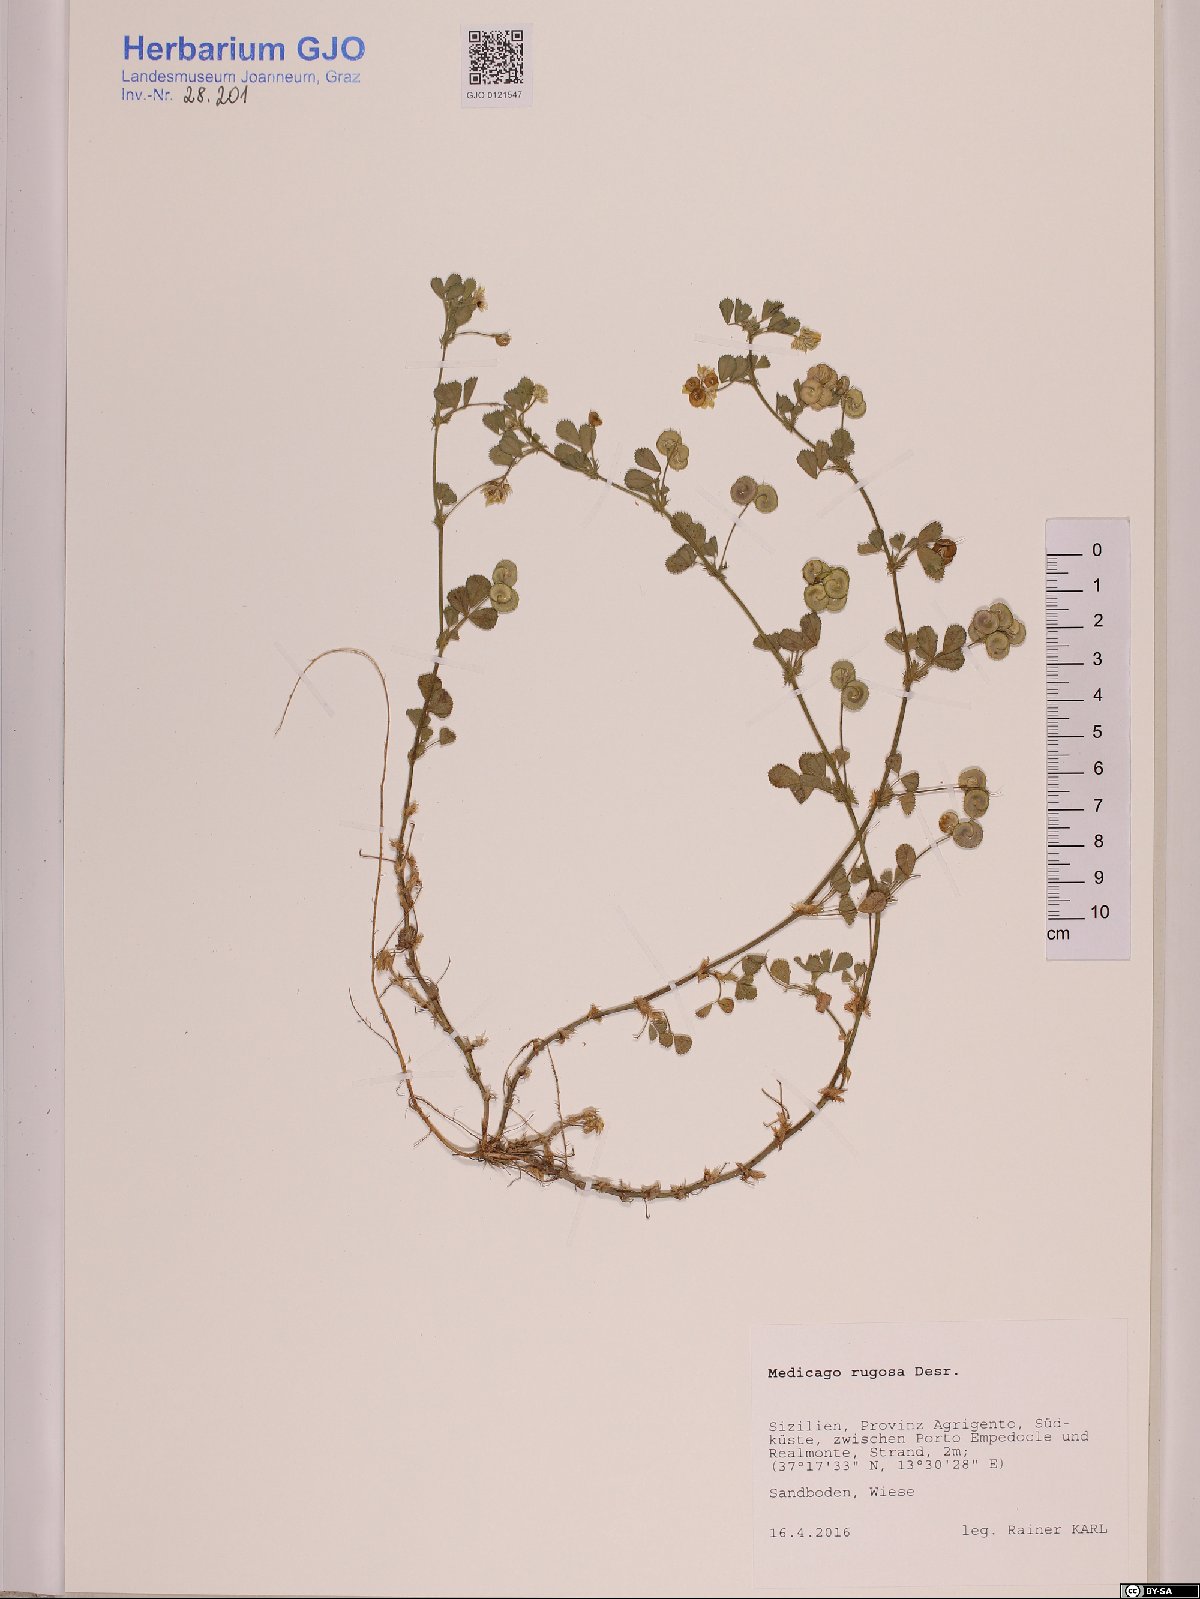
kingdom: Plantae
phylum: Tracheophyta
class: Magnoliopsida
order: Fabales
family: Fabaceae
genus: Medicago
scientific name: Medicago rugosa
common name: Gama medic
